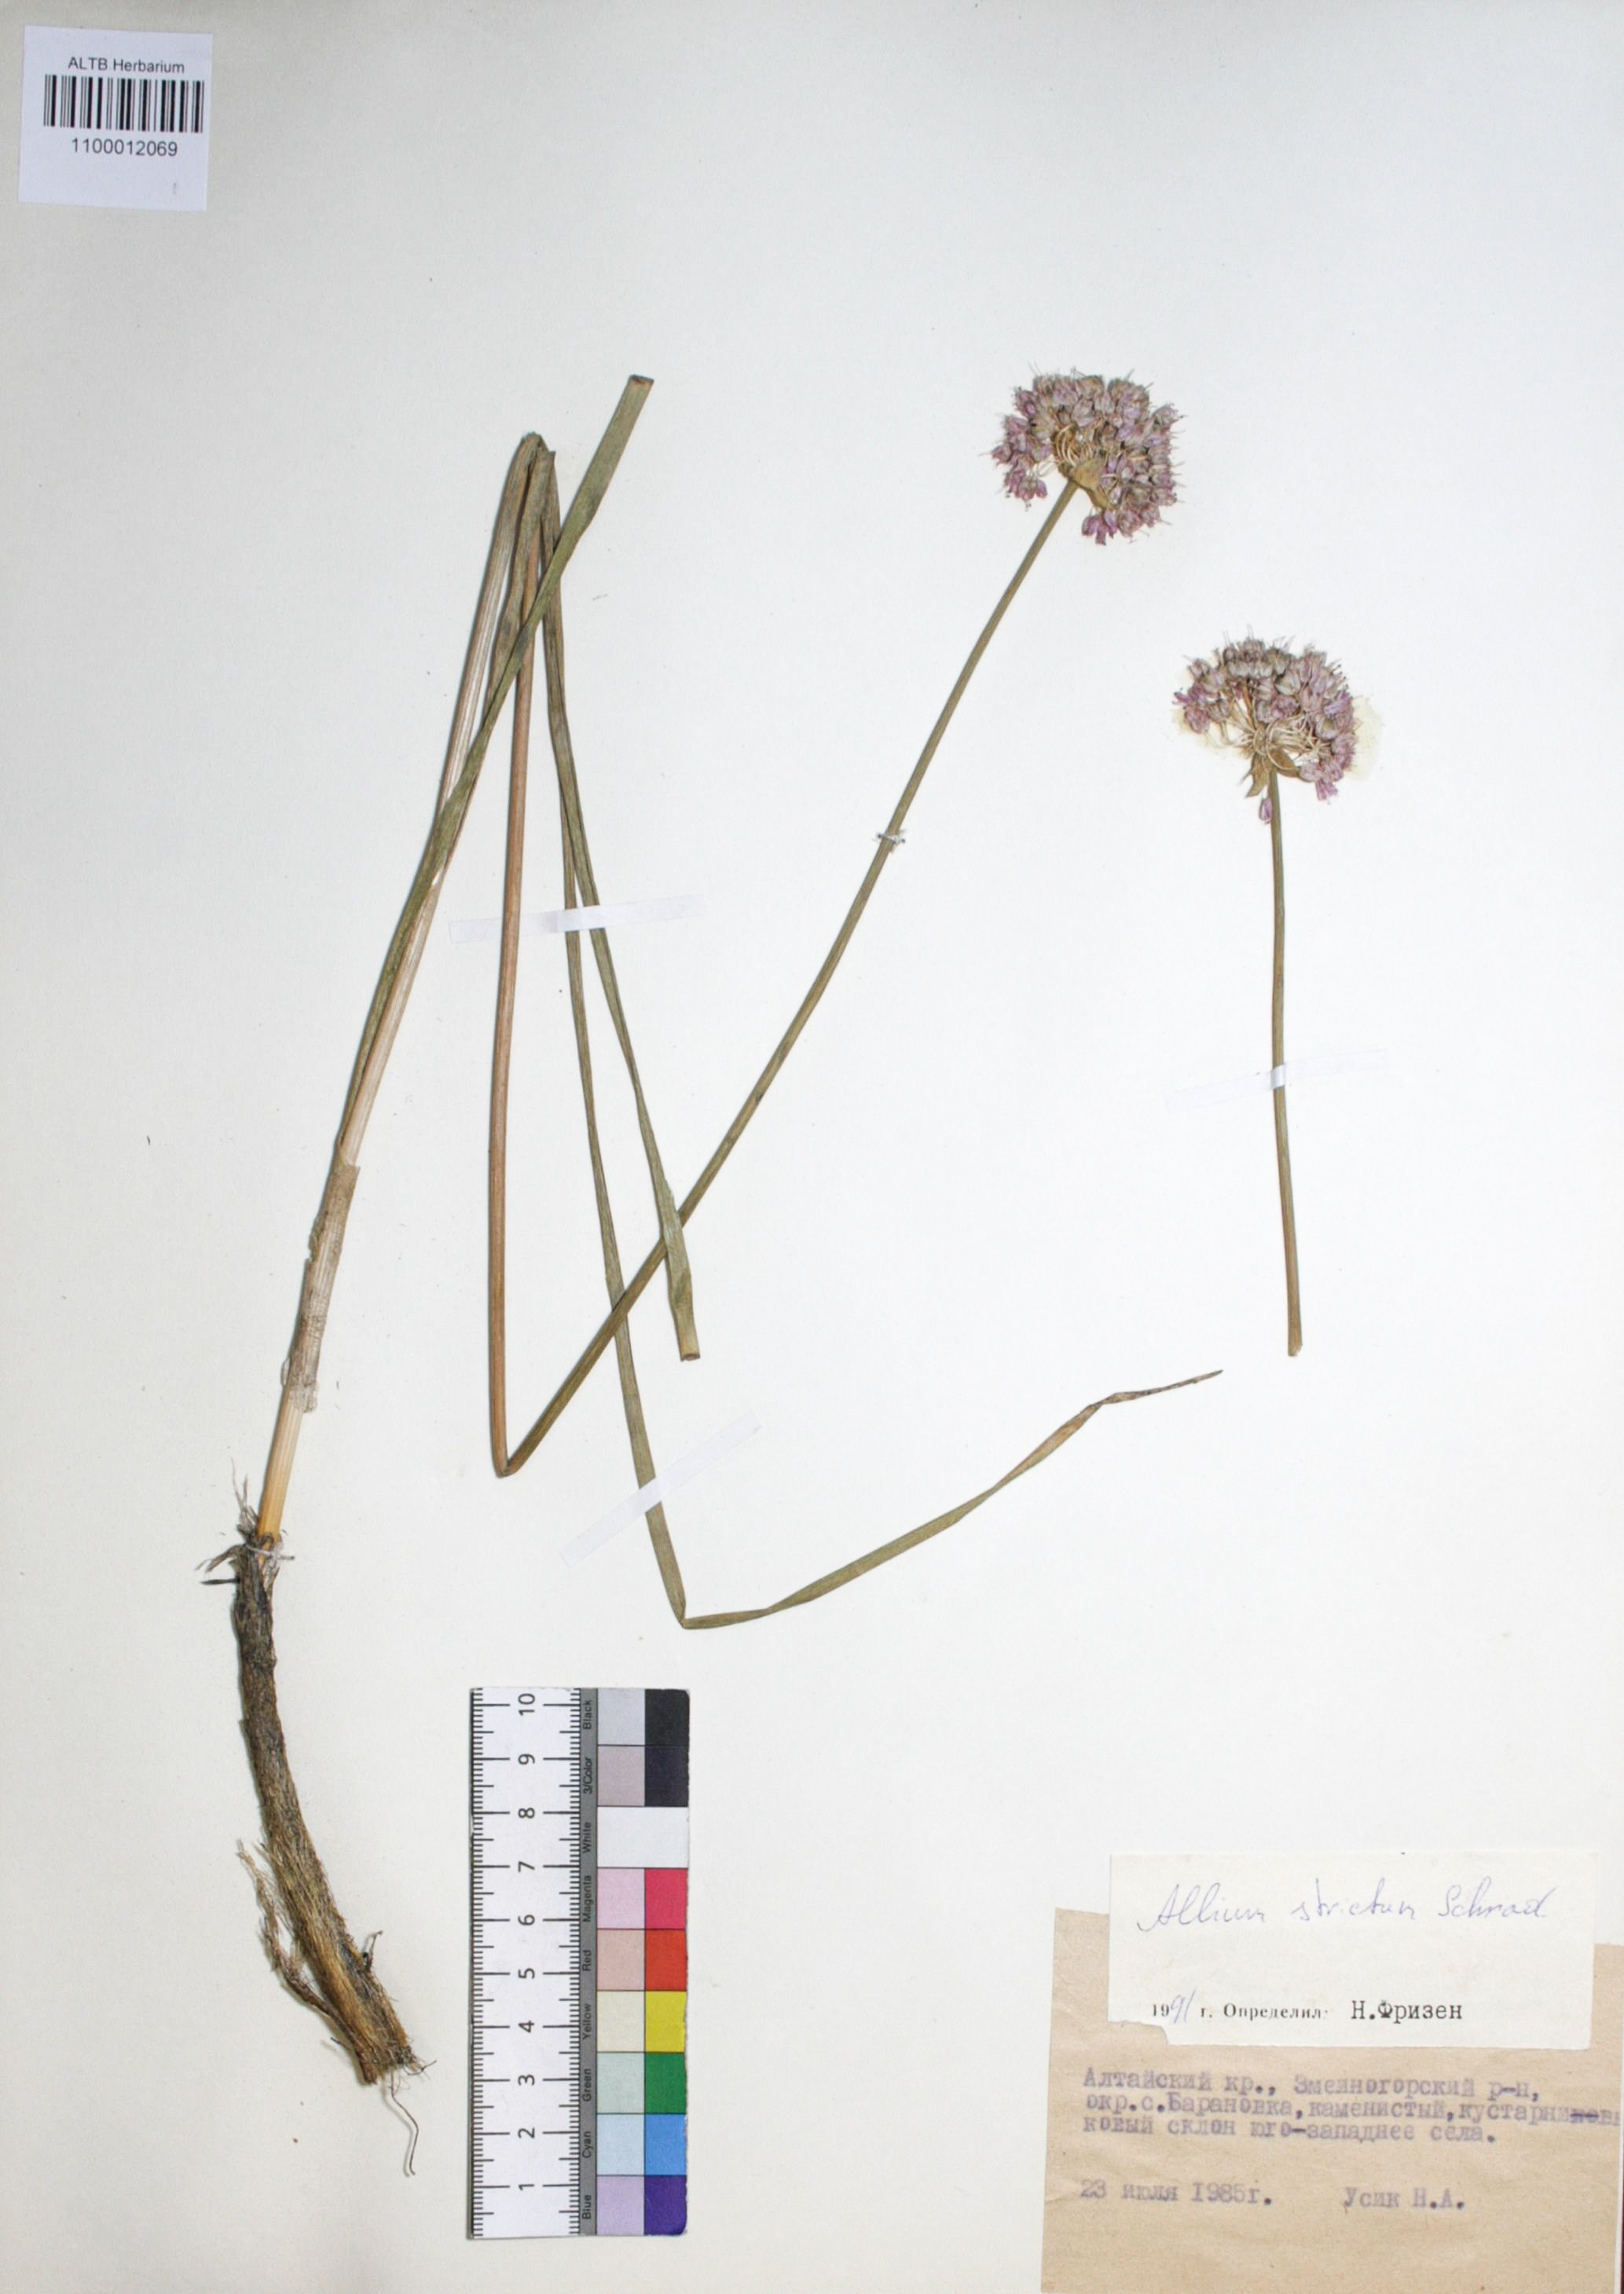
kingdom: Plantae
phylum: Tracheophyta
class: Liliopsida
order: Asparagales
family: Amaryllidaceae
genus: Allium
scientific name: Allium strictum
